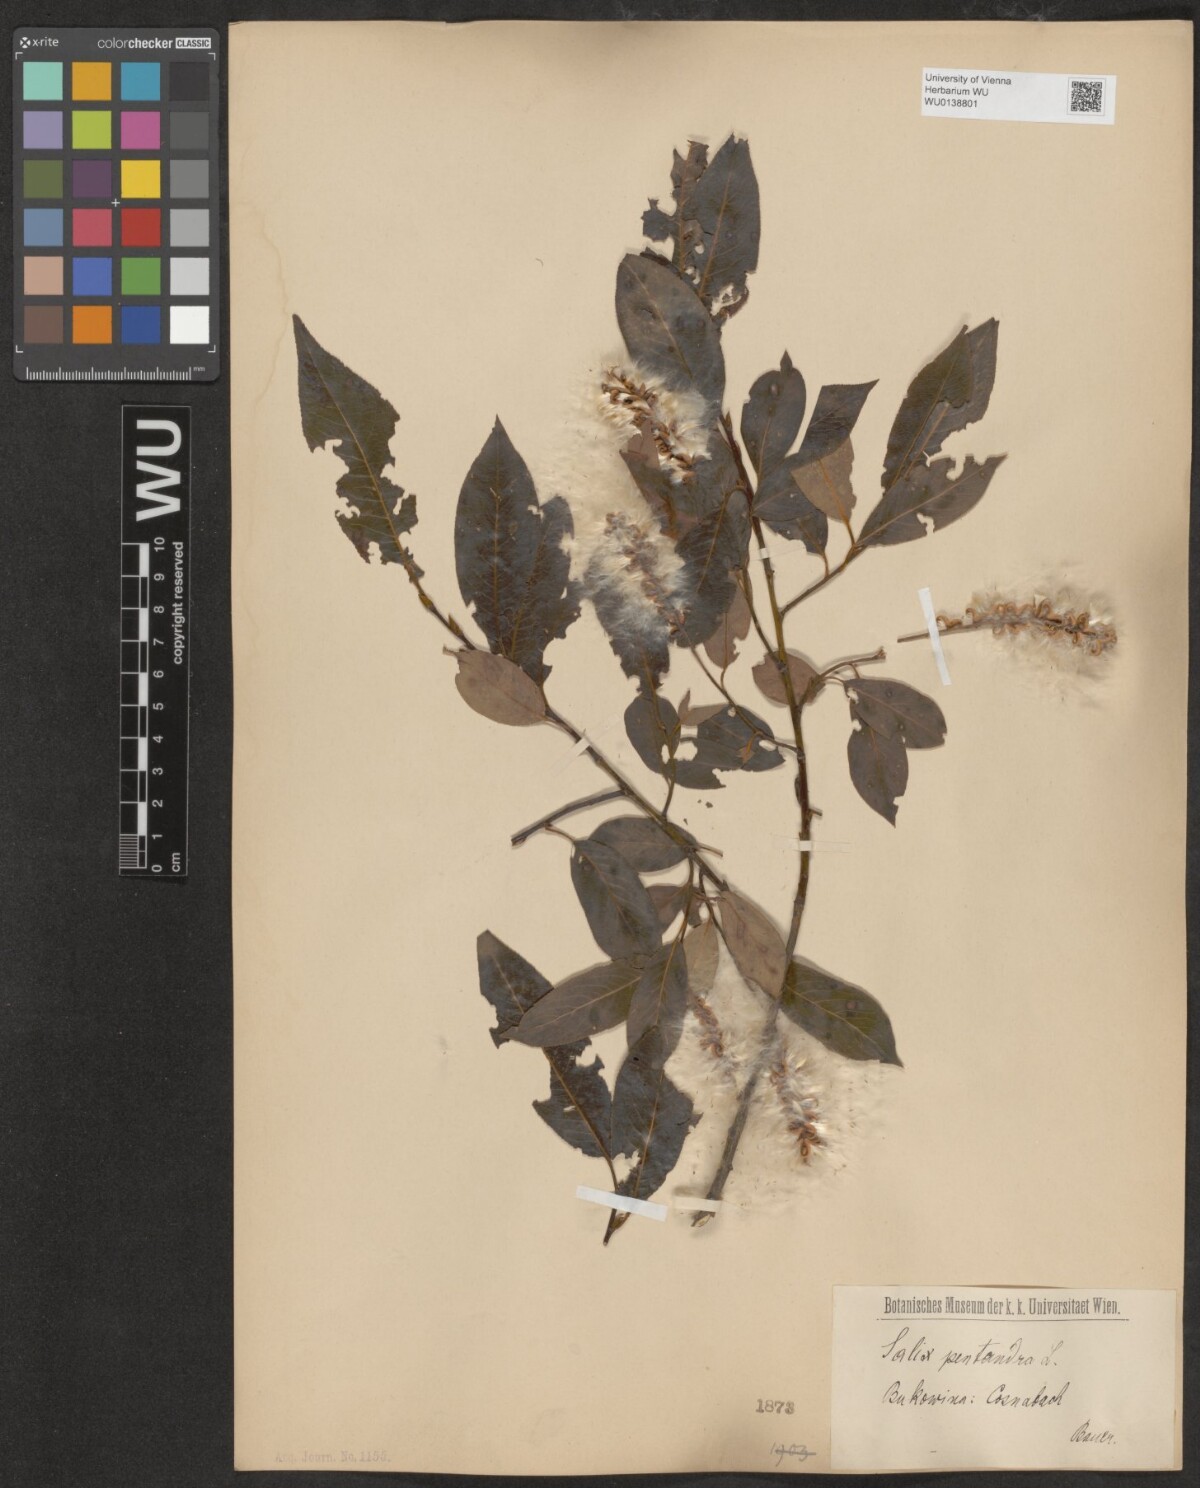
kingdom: Plantae
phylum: Tracheophyta
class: Magnoliopsida
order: Malpighiales
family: Salicaceae
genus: Salix
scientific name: Salix pentandra
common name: Bay willow
